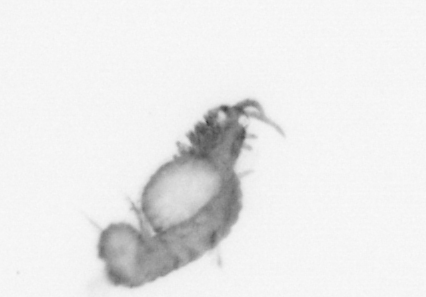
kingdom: Animalia
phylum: Annelida
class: Polychaeta
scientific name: Polychaeta
